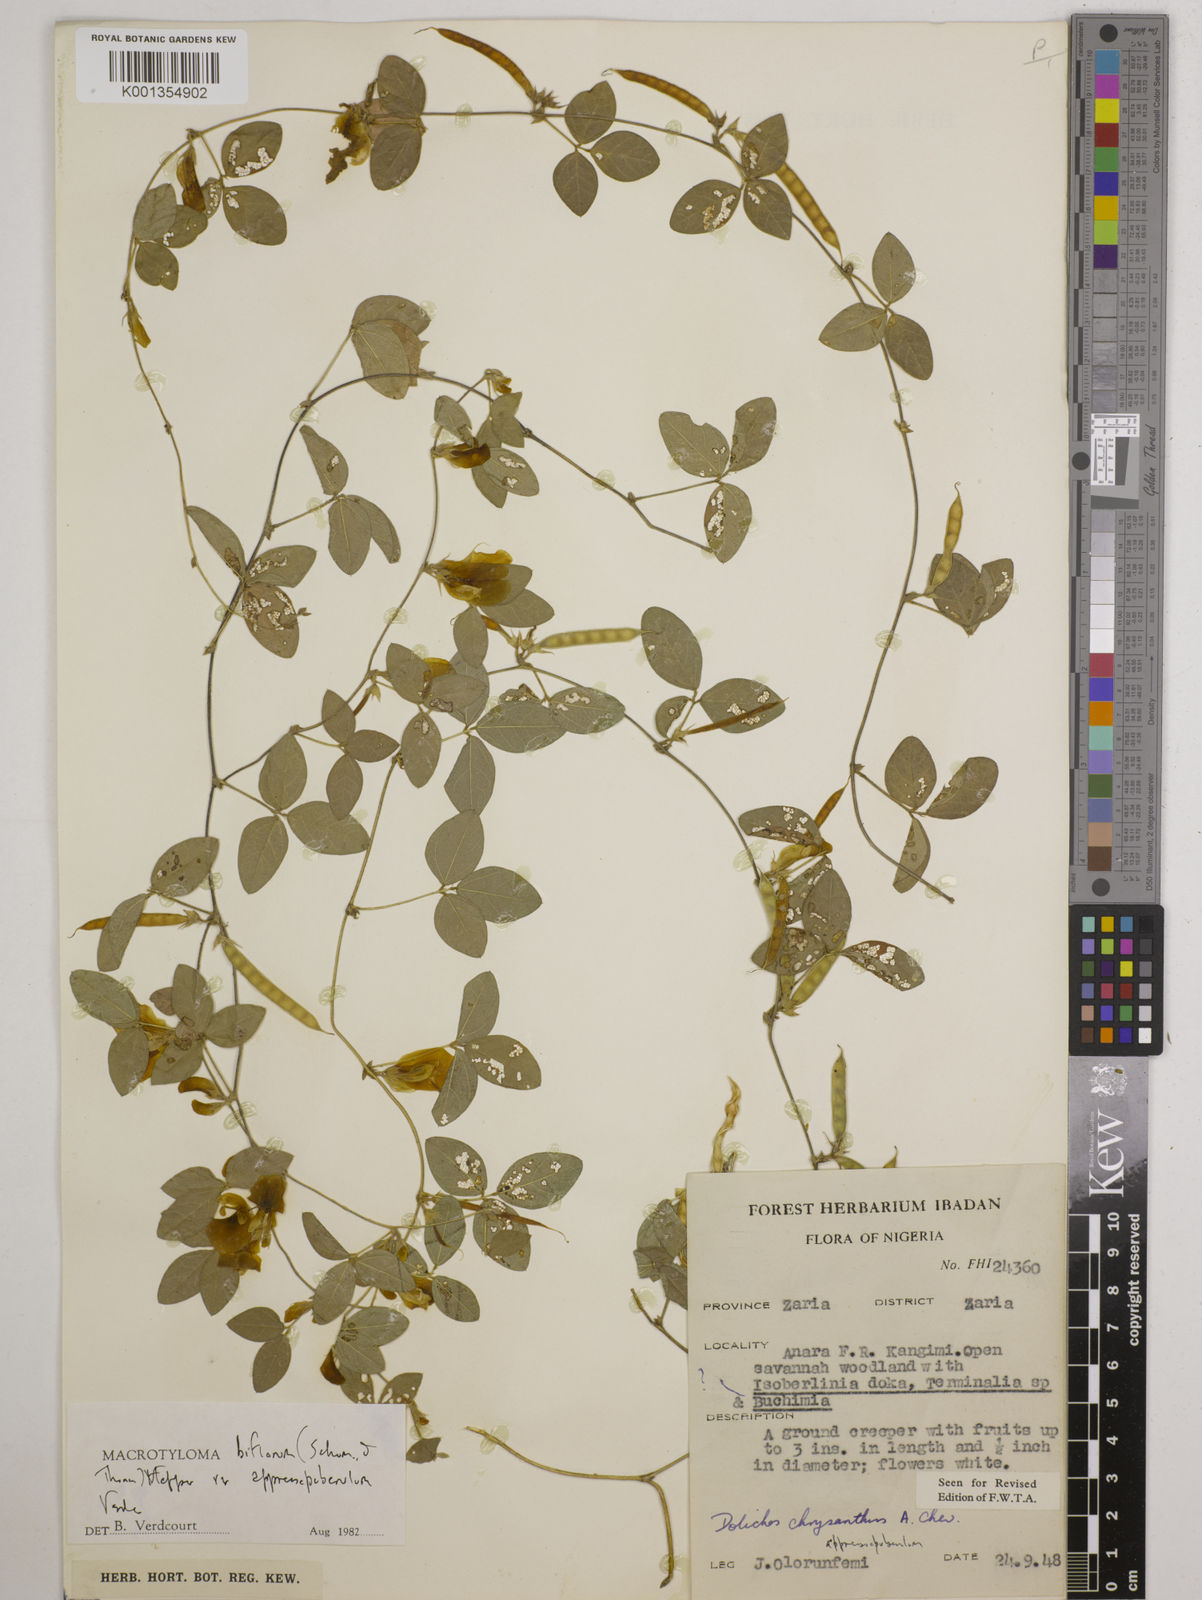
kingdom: Plantae
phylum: Tracheophyta
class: Magnoliopsida
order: Fabales
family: Fabaceae
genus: Macrotyloma
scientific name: Macrotyloma biflorum
